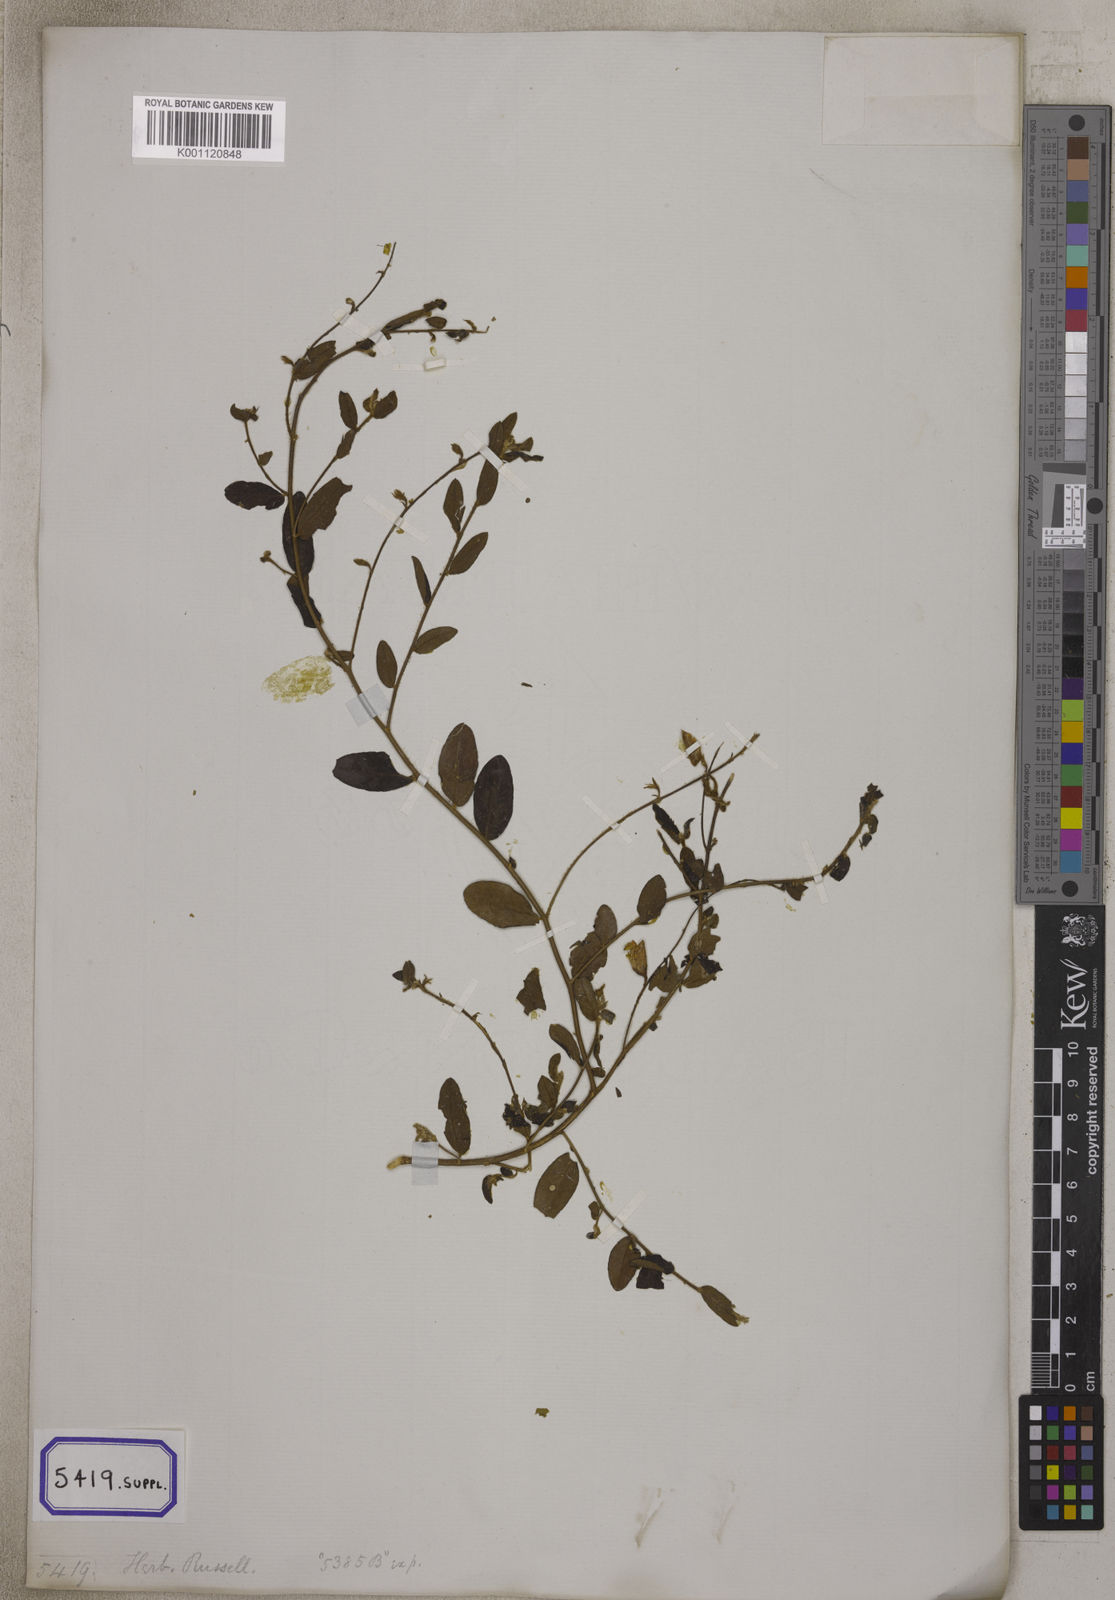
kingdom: Plantae
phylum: Tracheophyta
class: Magnoliopsida
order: Fabales
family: Fabaceae
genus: Crotalaria
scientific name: Crotalaria
